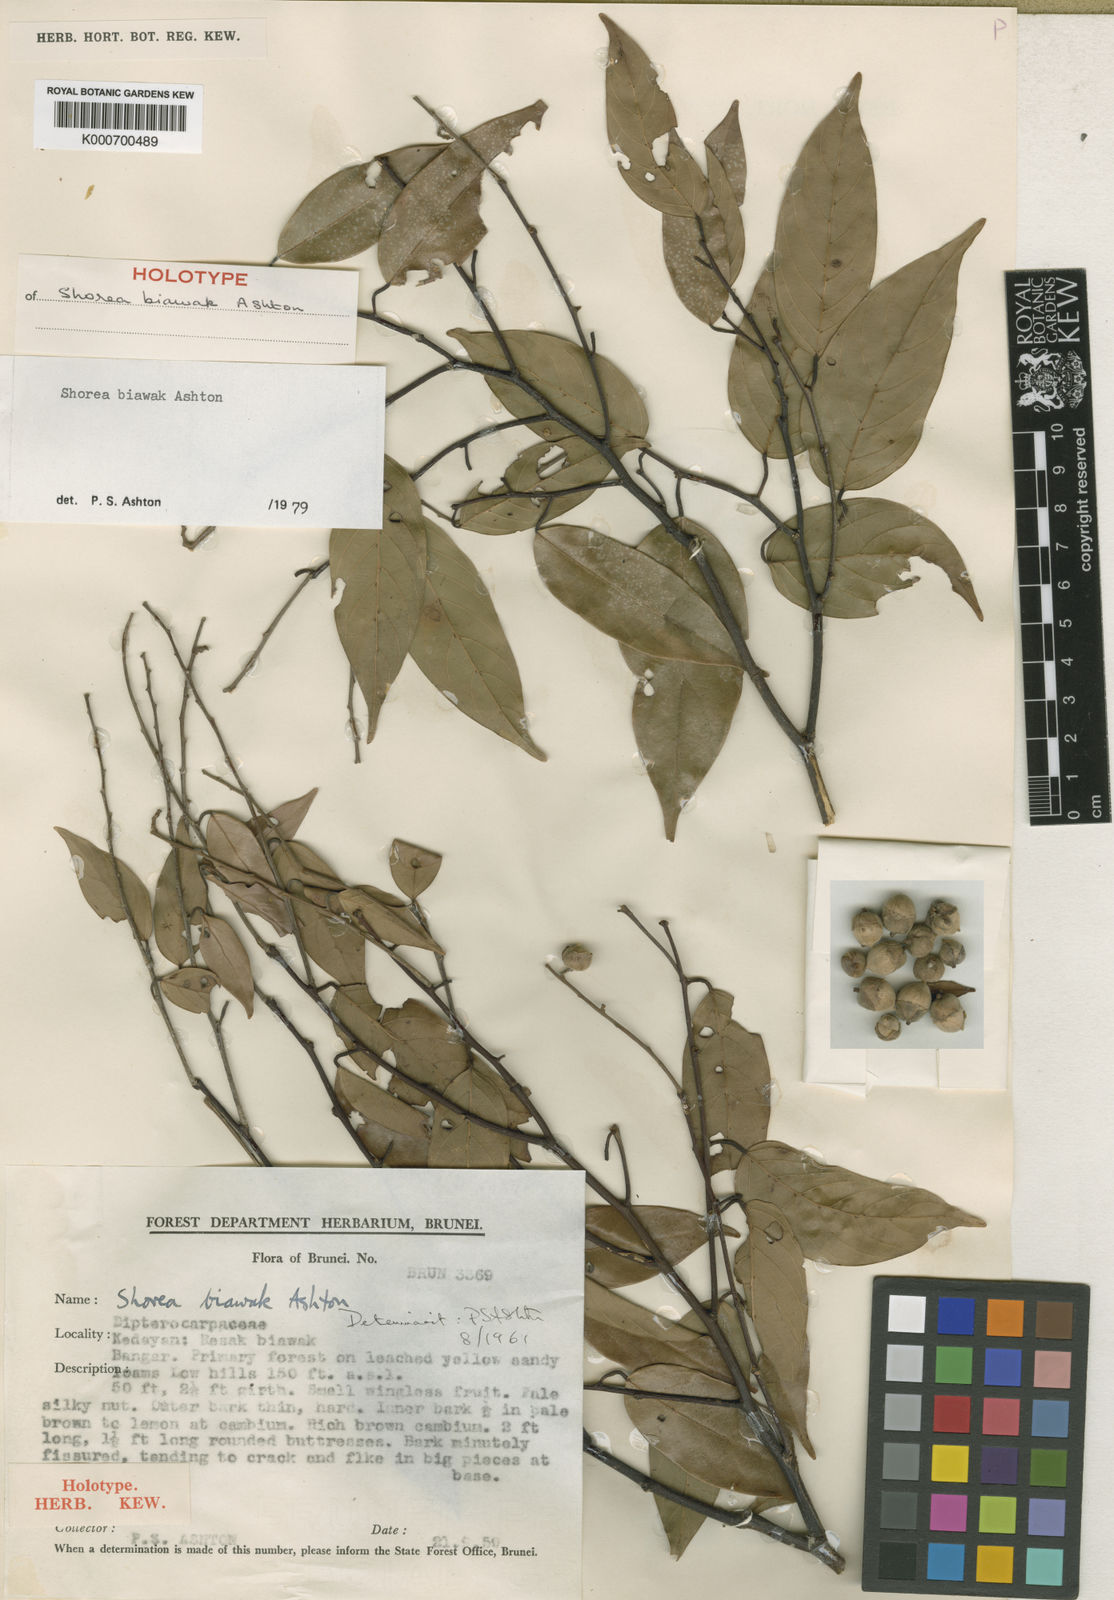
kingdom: Plantae
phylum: Tracheophyta
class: Magnoliopsida
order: Malvales
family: Dipterocarpaceae
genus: Shorea
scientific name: Shorea biawak
